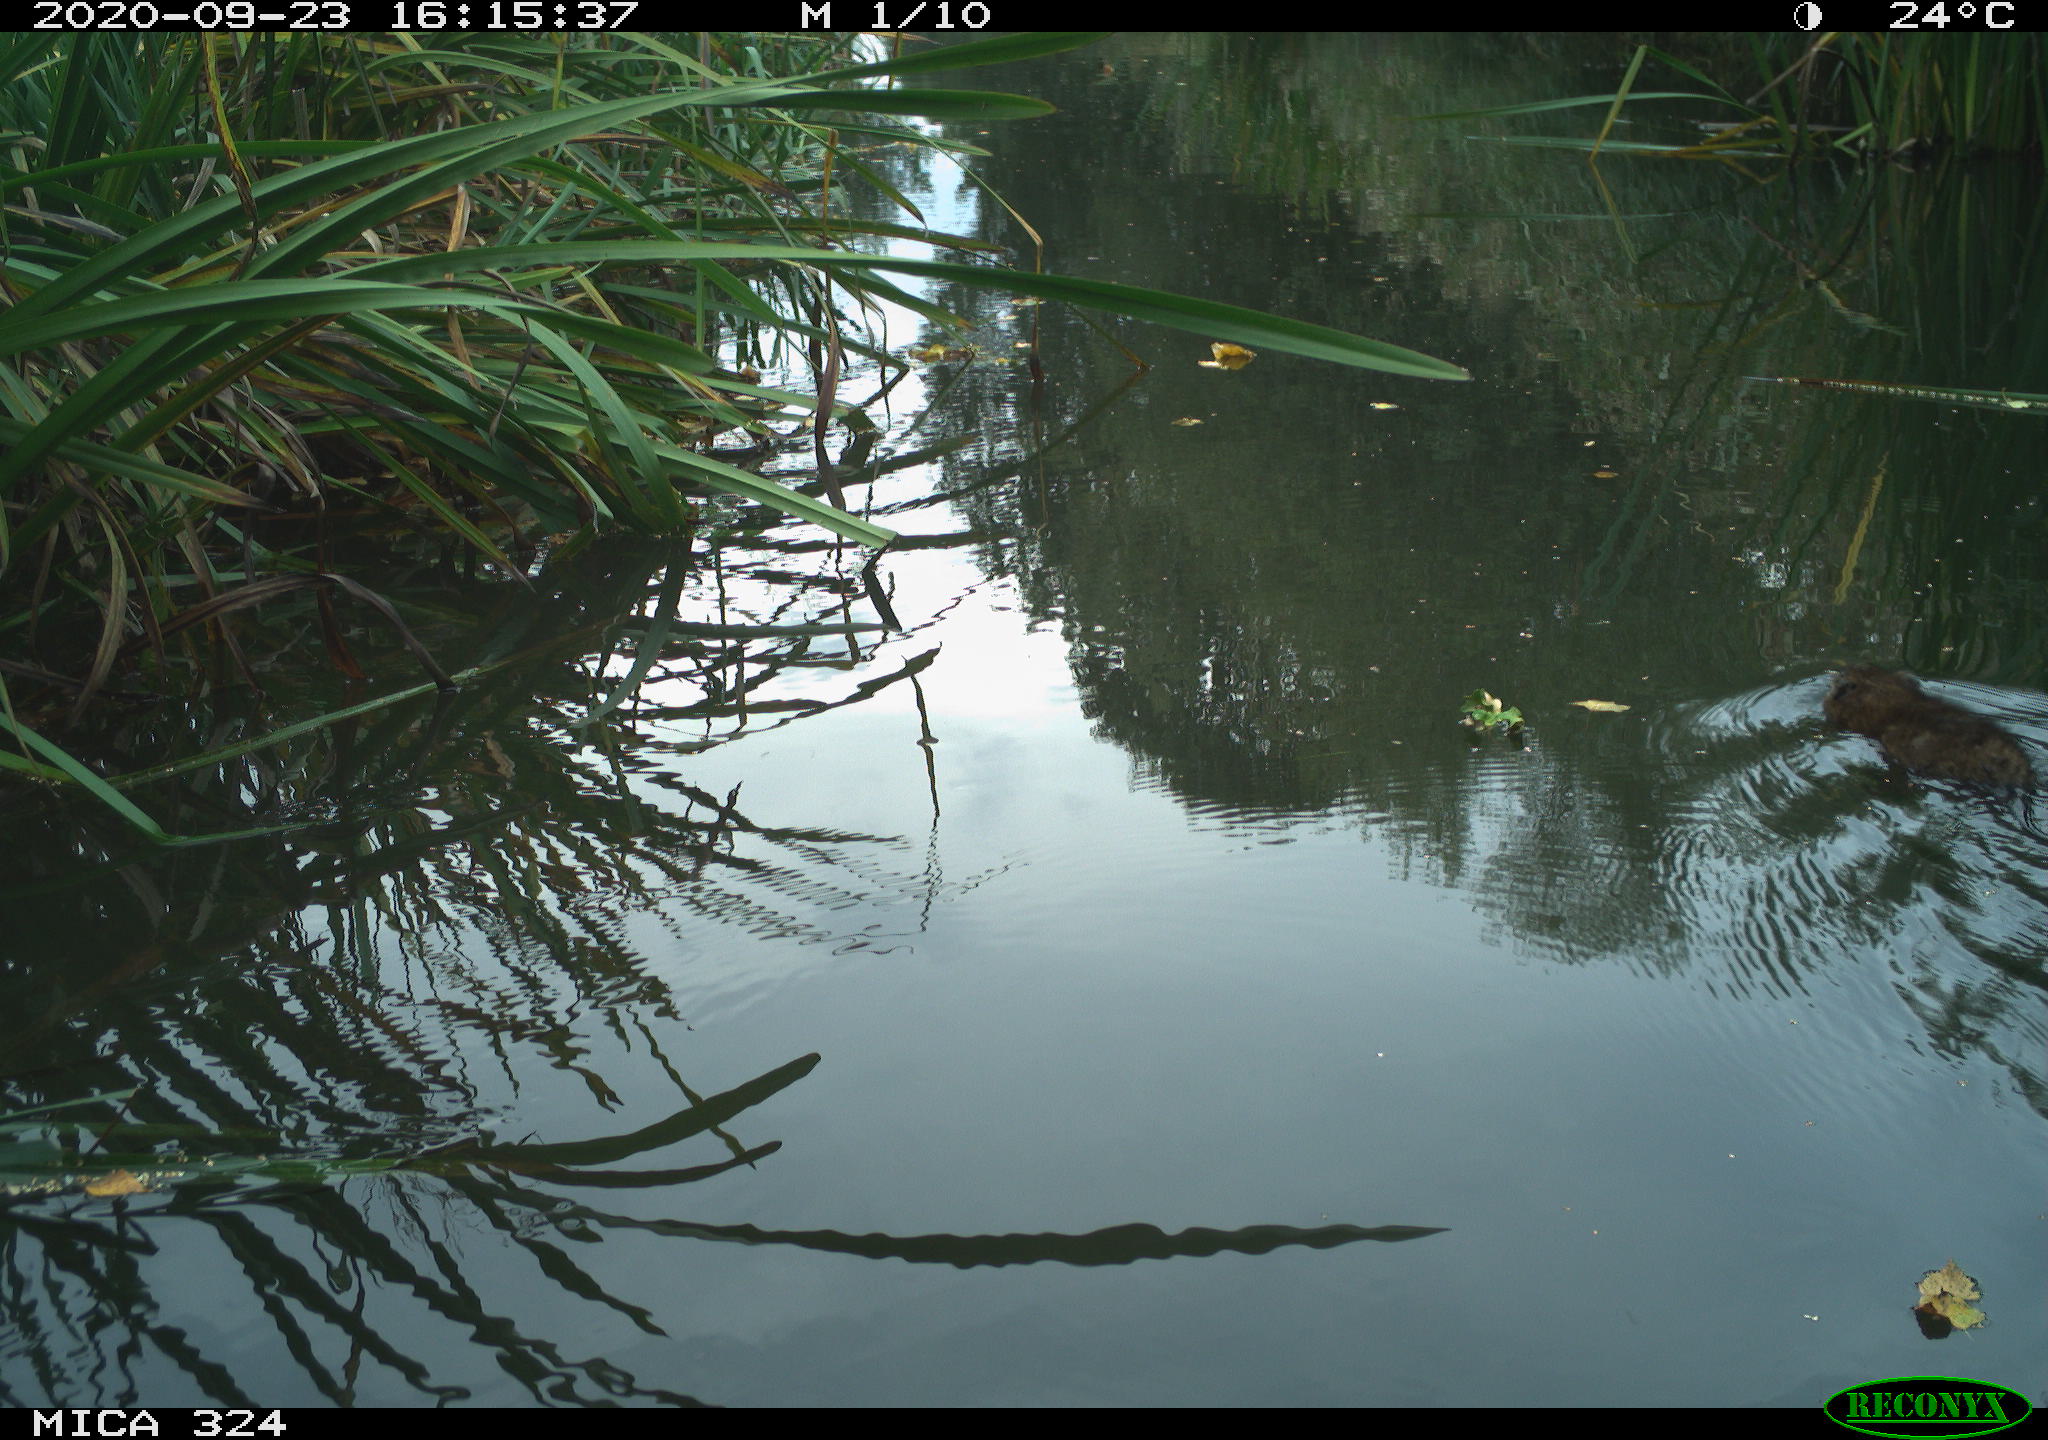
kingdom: Animalia
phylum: Chordata
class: Mammalia
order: Rodentia
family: Cricetidae
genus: Ondatra
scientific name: Ondatra zibethicus
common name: Muskrat
